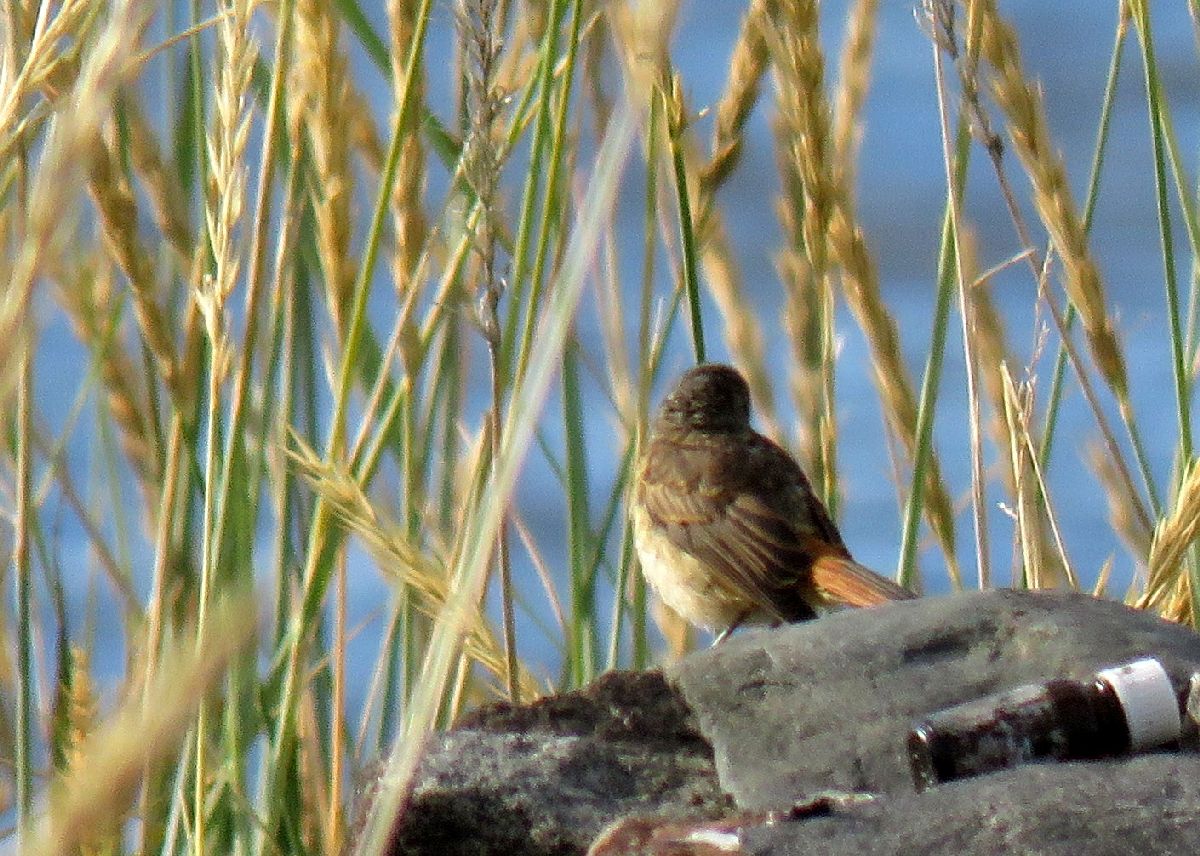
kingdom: Animalia
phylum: Chordata
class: Aves
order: Passeriformes
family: Muscicapidae
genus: Phoenicurus
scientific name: Phoenicurus phoenicurus
